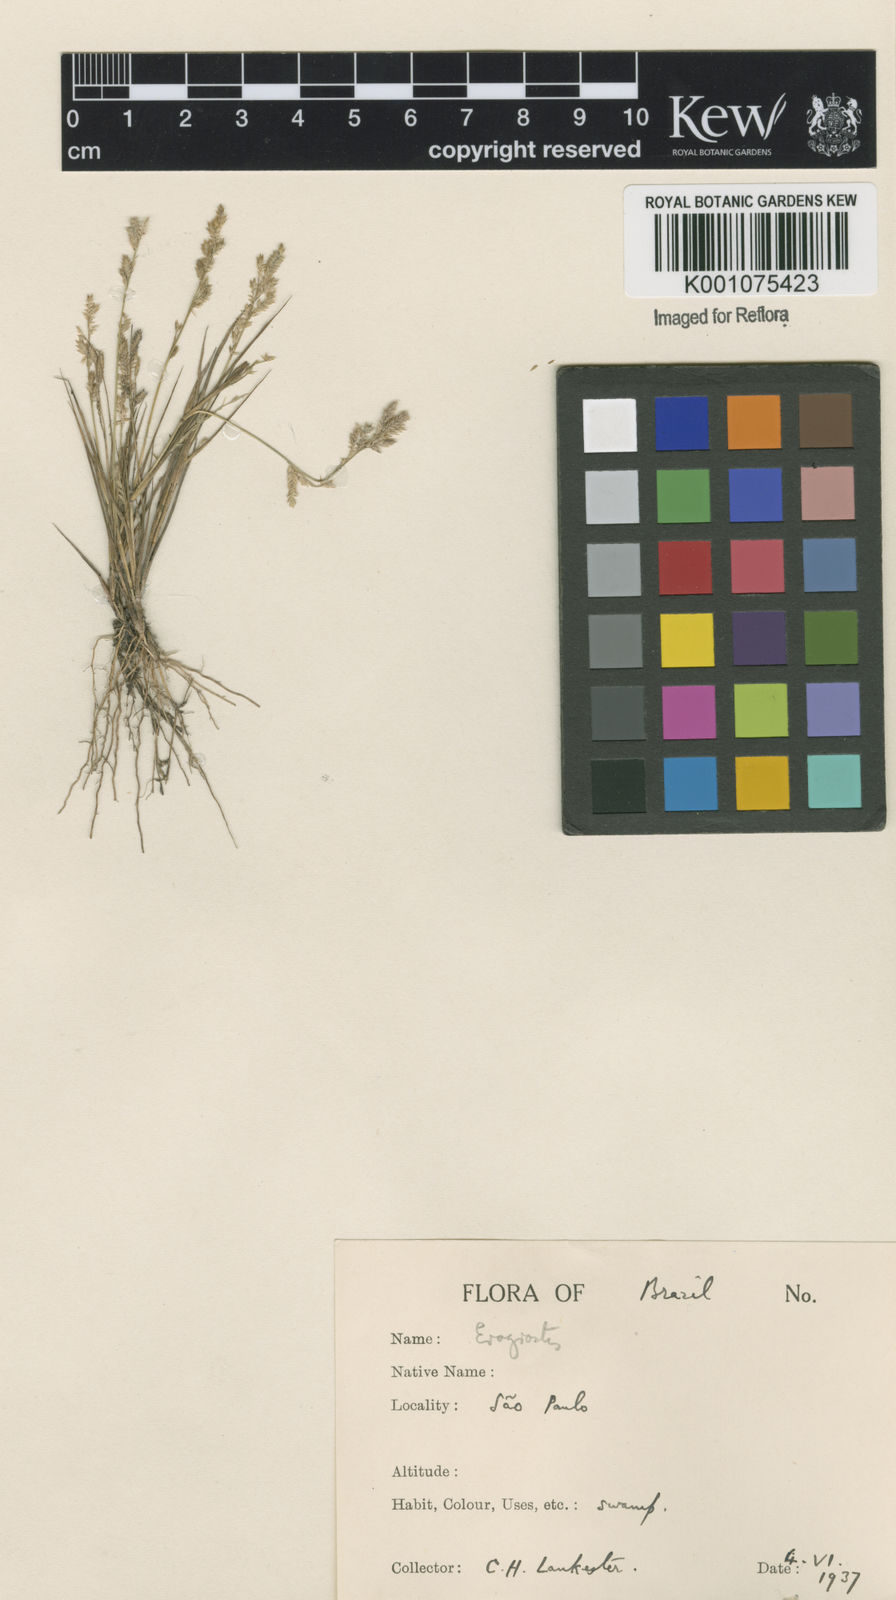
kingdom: Plantae
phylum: Tracheophyta
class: Liliopsida
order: Poales
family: Poaceae
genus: Eragrostis
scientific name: Eragrostis rufescens
